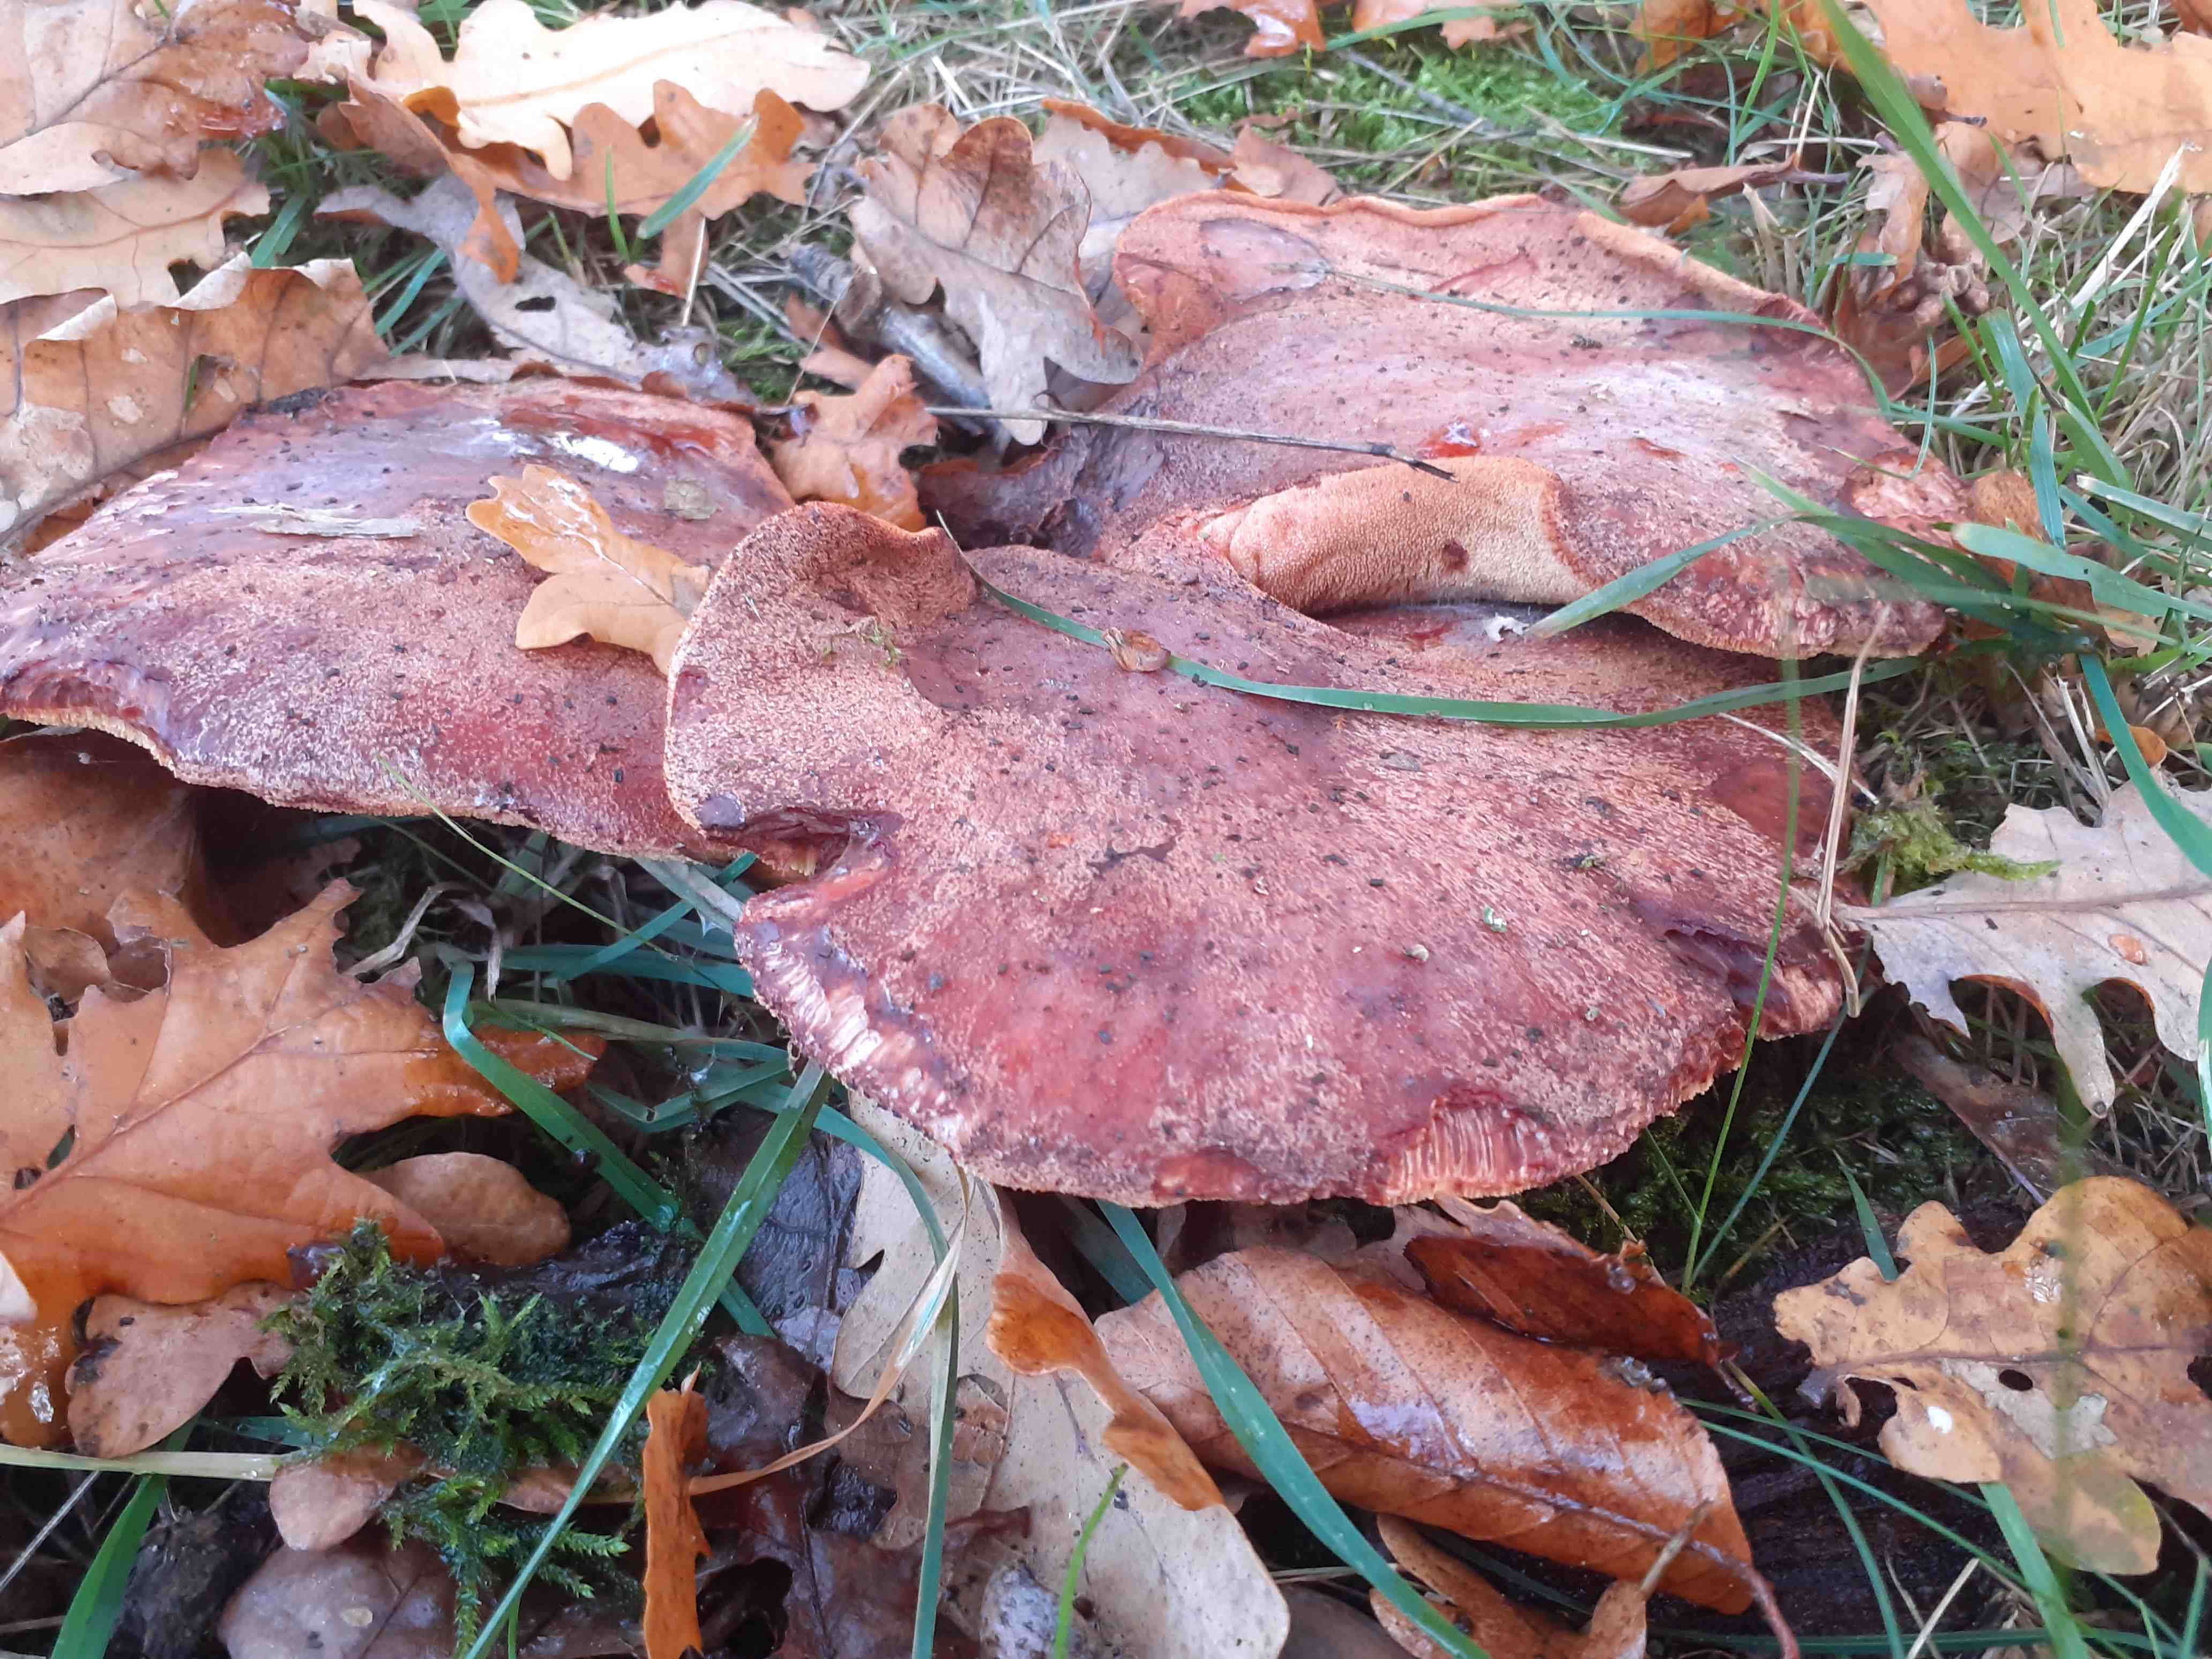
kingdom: Fungi
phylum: Basidiomycota
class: Agaricomycetes
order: Agaricales
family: Fistulinaceae
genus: Fistulina
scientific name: Fistulina hepatica
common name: oksetunge
